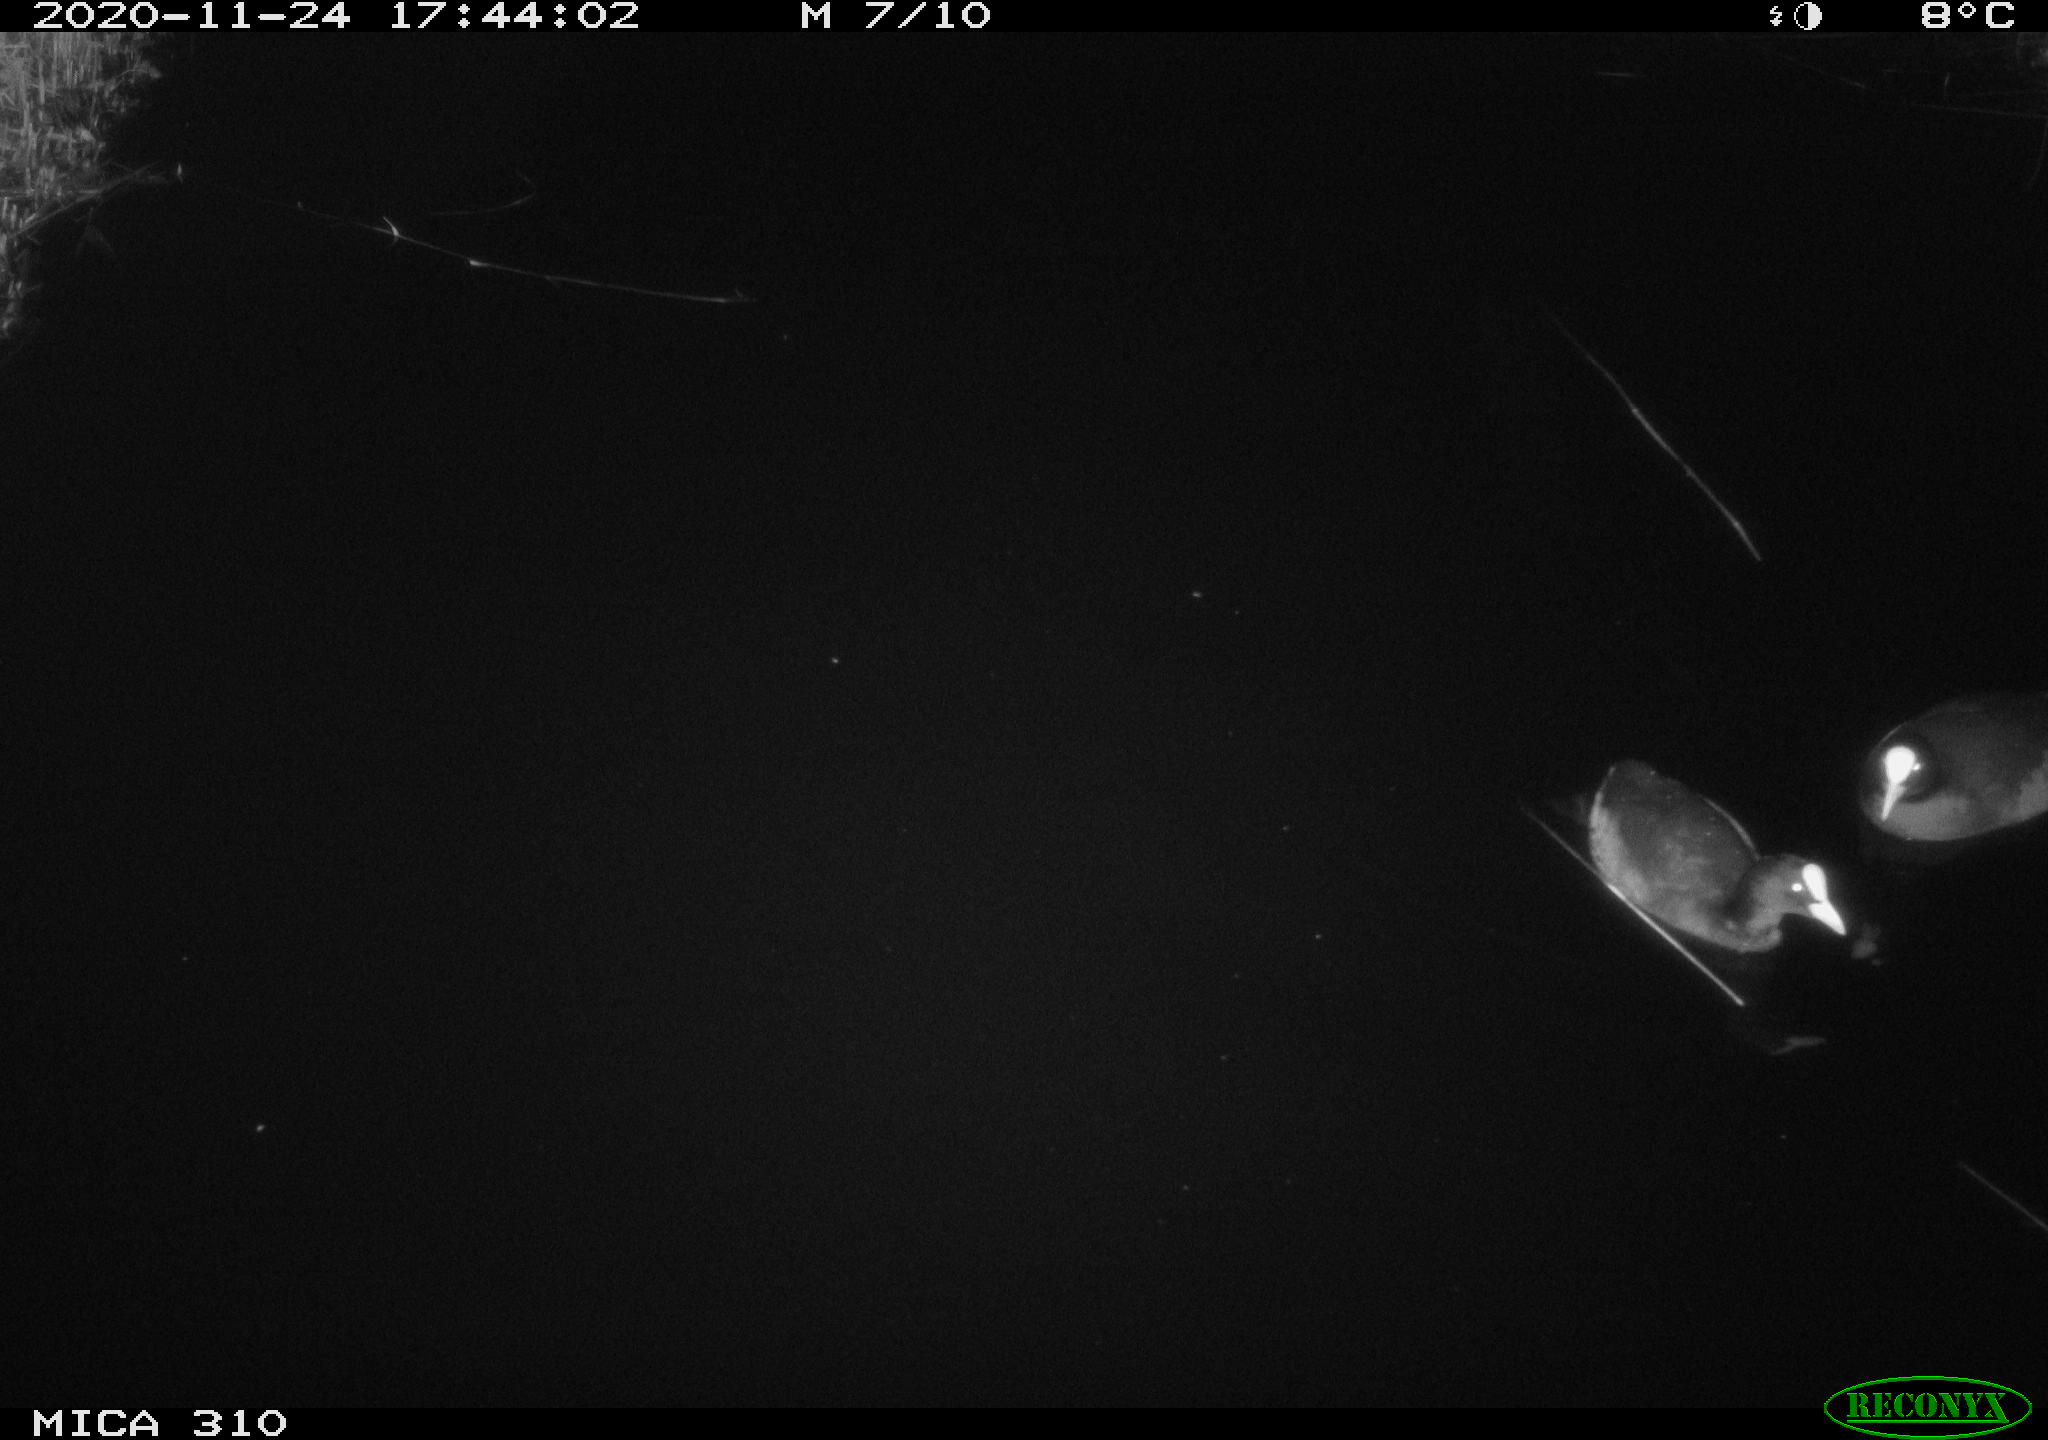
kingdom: Animalia
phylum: Chordata
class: Aves
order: Gruiformes
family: Rallidae
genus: Fulica
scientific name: Fulica atra
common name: Eurasian coot
